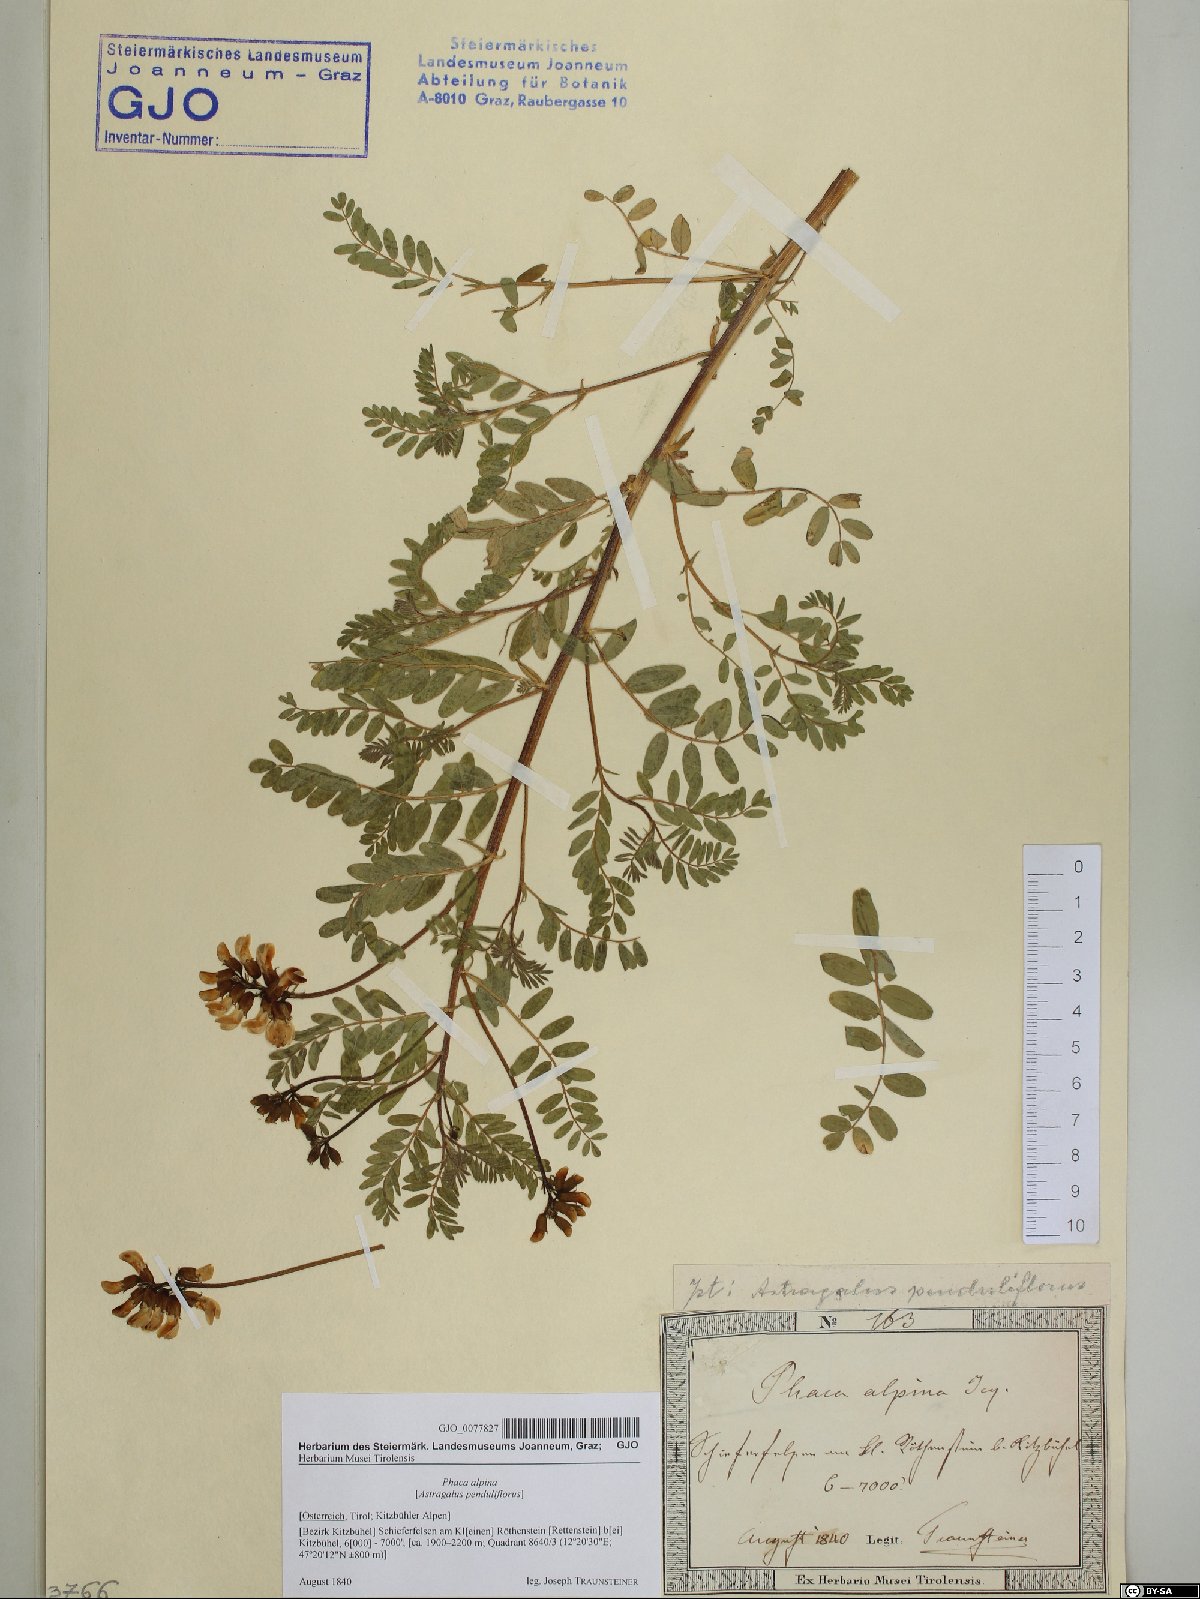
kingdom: Plantae
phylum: Tracheophyta
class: Magnoliopsida
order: Fabales
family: Fabaceae
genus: Astragalus
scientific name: Astragalus penduliflorus
